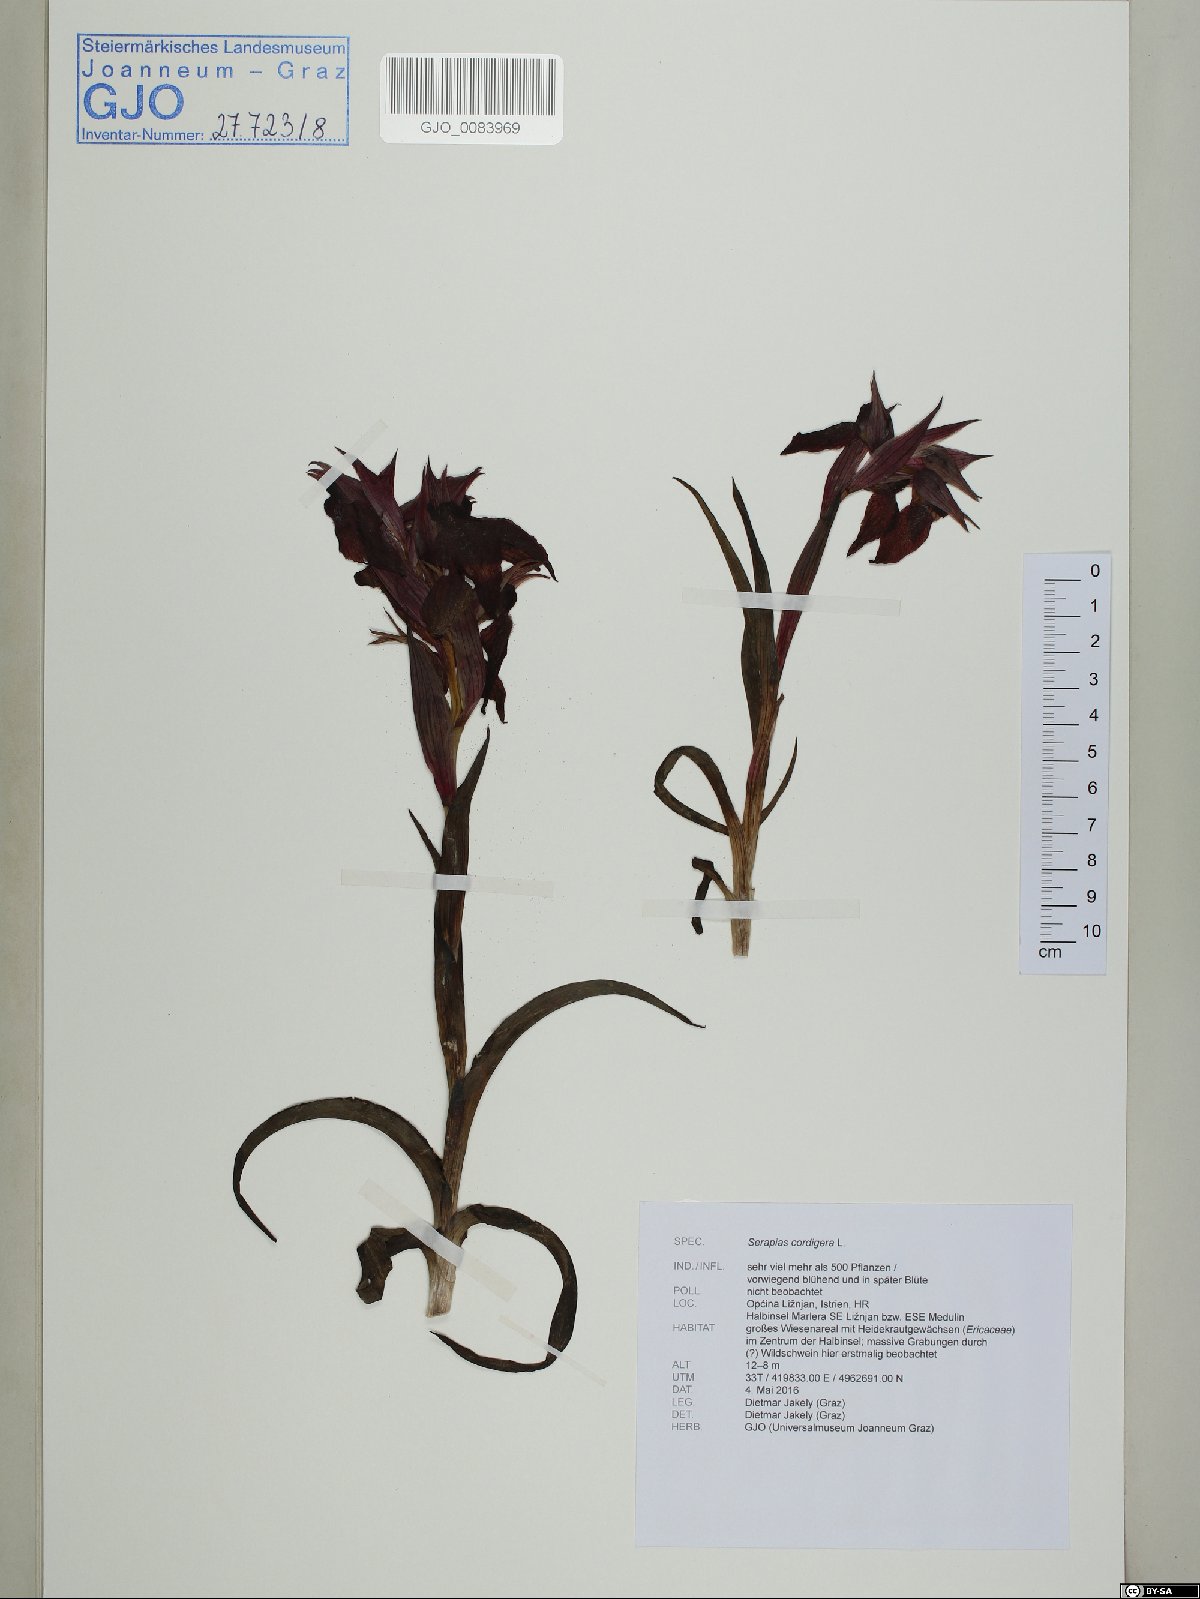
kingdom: Plantae
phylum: Tracheophyta
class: Liliopsida
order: Asparagales
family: Orchidaceae
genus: Serapias
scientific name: Serapias cordigera
